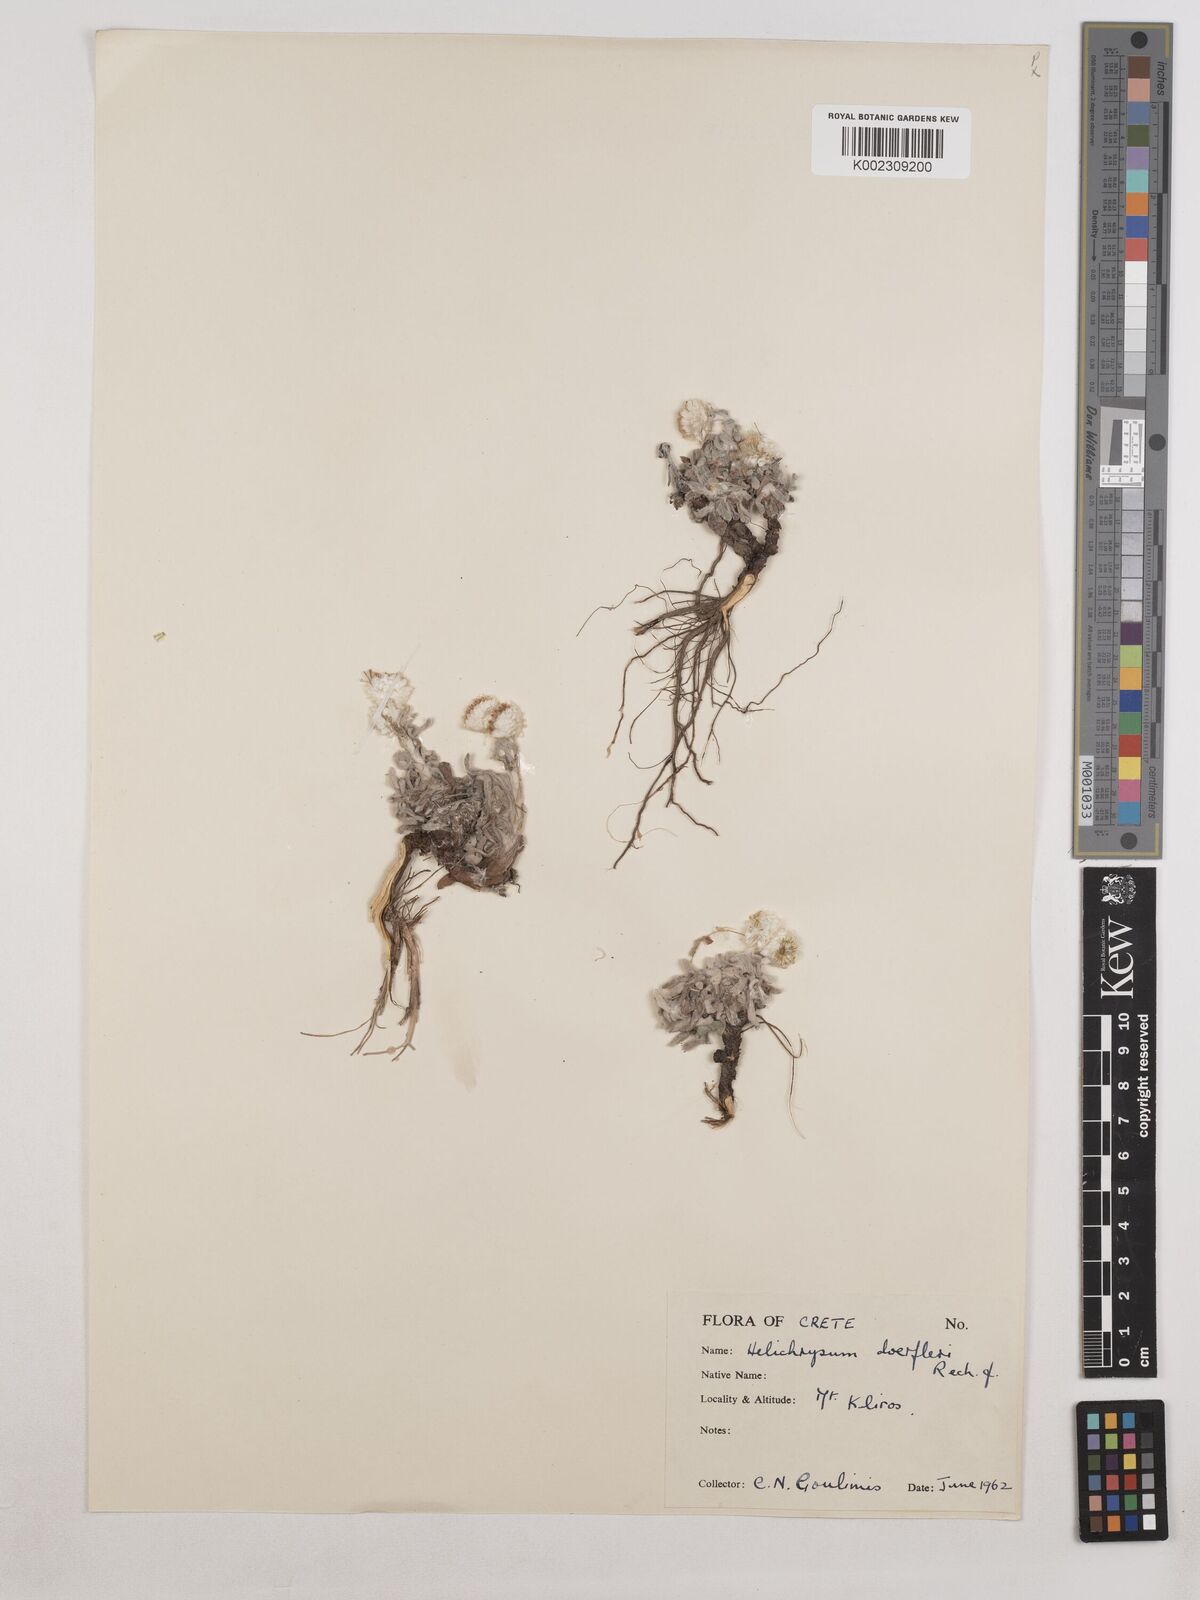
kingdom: Plantae
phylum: Tracheophyta
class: Magnoliopsida
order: Asterales
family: Asteraceae
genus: Helichrysum
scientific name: Helichrysum doerfleri
